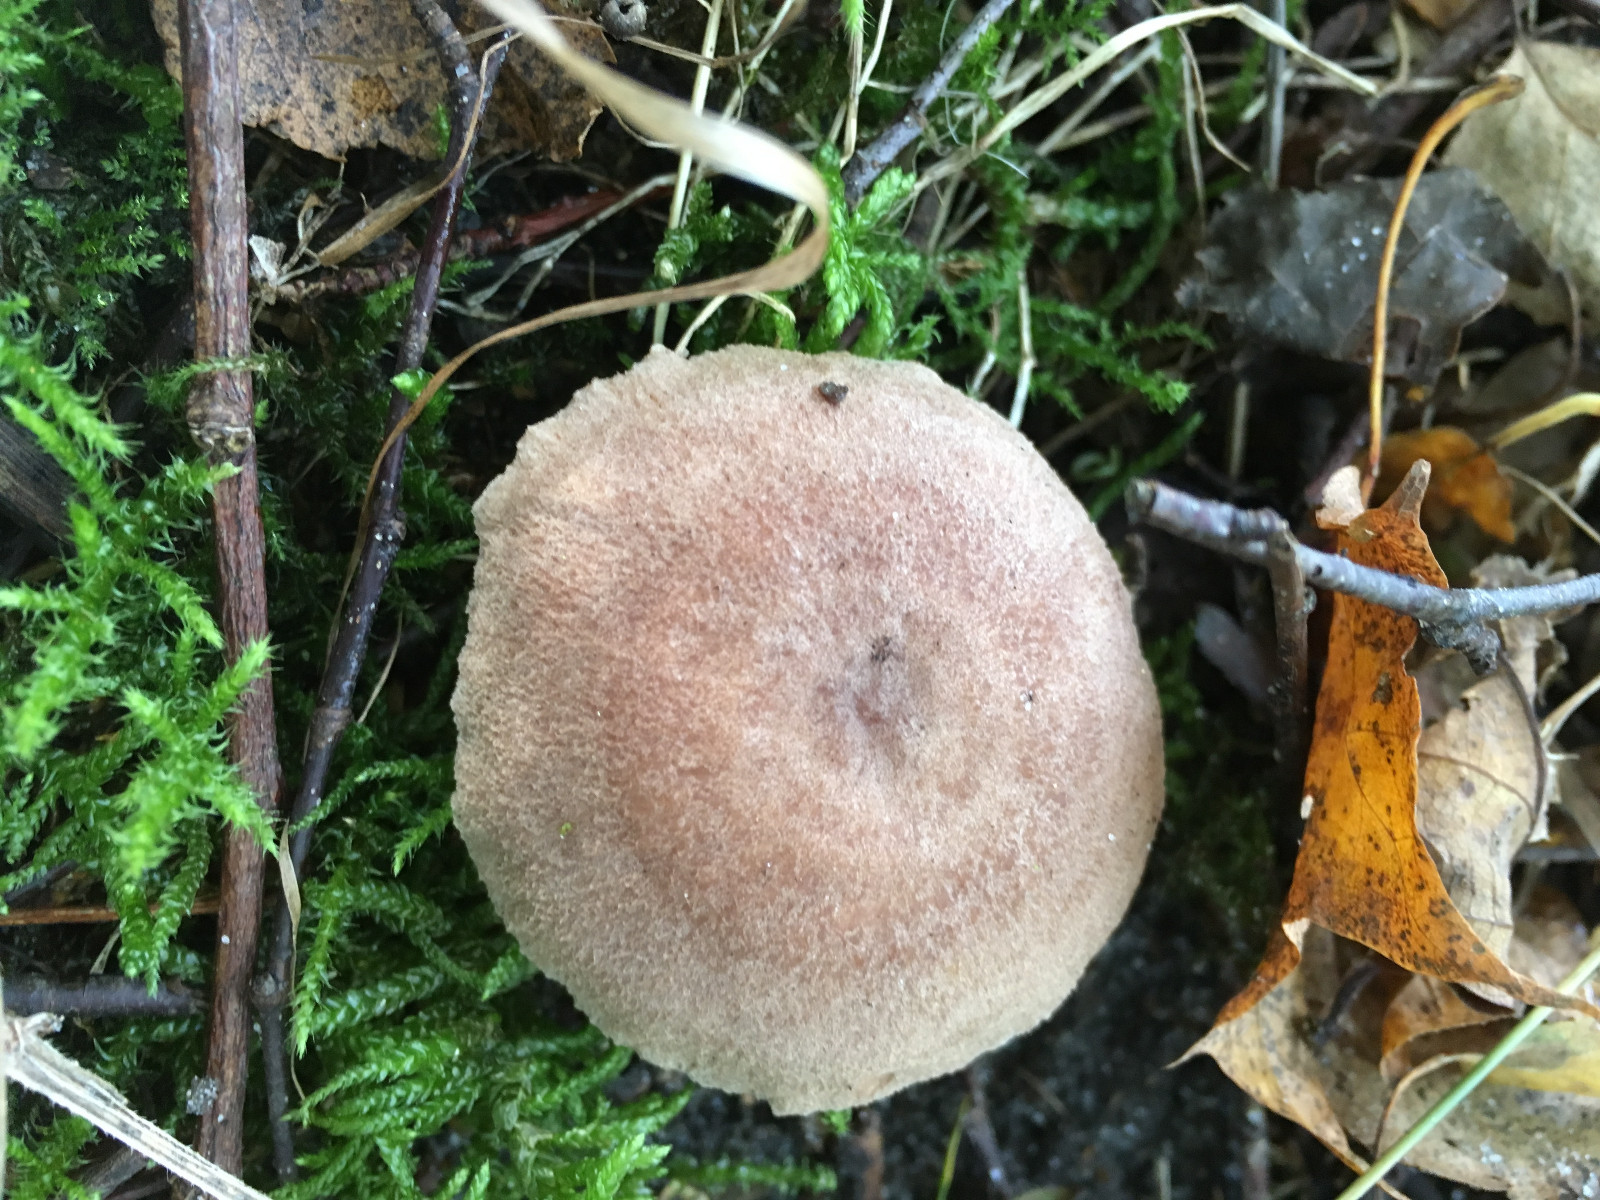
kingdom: Fungi
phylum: Basidiomycota
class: Agaricomycetes
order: Russulales
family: Russulaceae
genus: Lactarius
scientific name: Lactarius glyciosmus
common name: kokos-mælkehat
